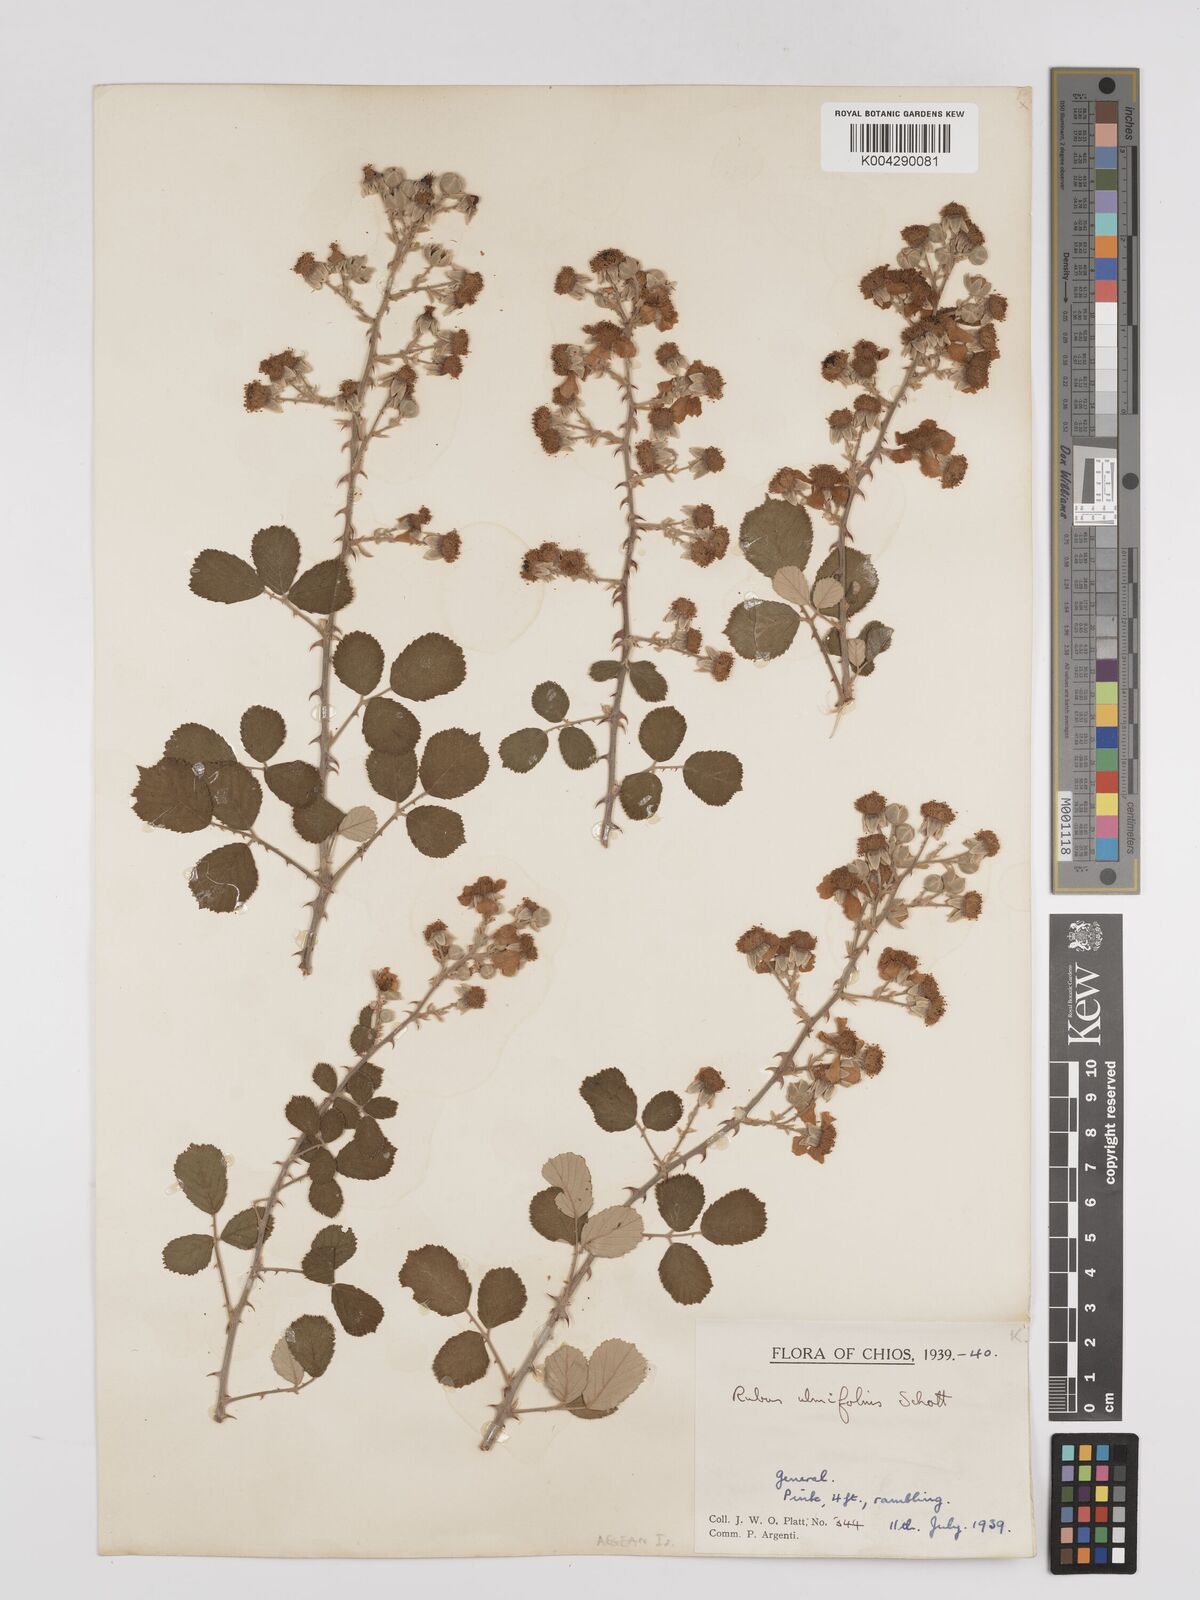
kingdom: Plantae
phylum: Tracheophyta
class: Magnoliopsida
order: Rosales
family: Rosaceae
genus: Rubus
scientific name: Rubus sanctus
